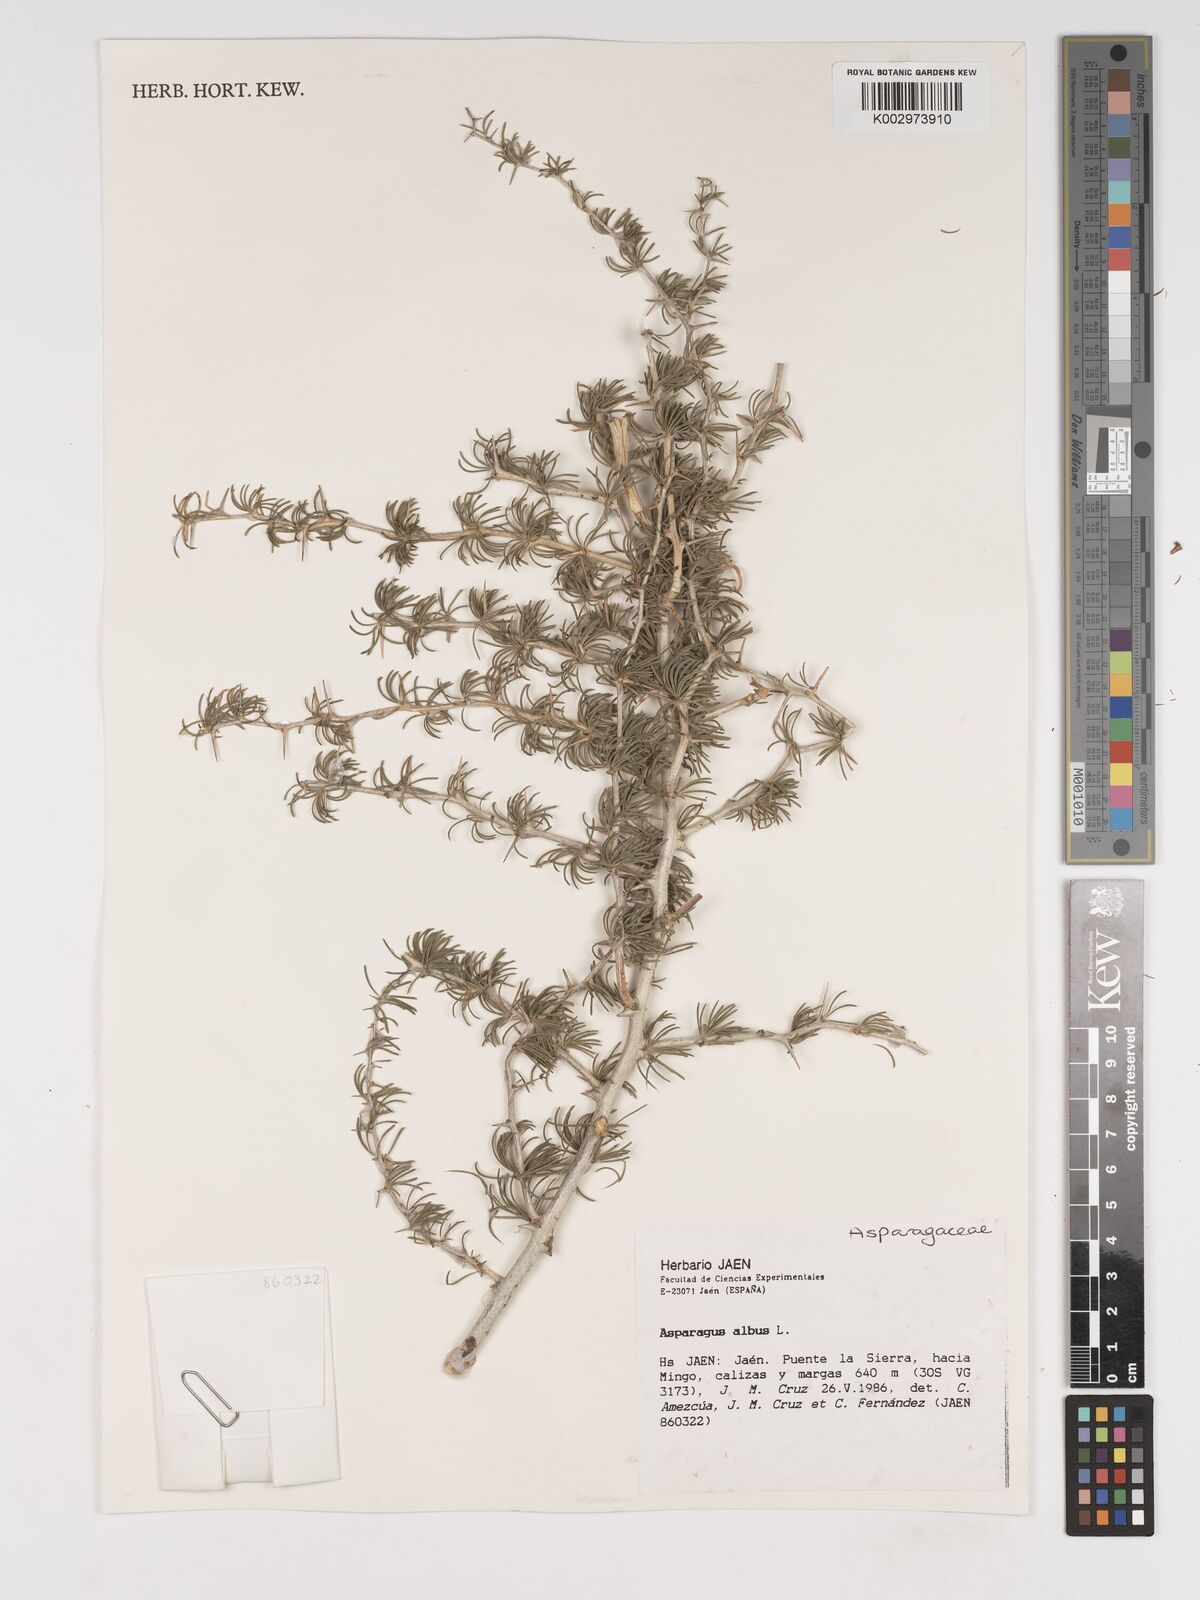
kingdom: Plantae
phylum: Tracheophyta
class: Liliopsida
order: Asparagales
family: Asparagaceae
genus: Asparagus
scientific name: Asparagus albus
